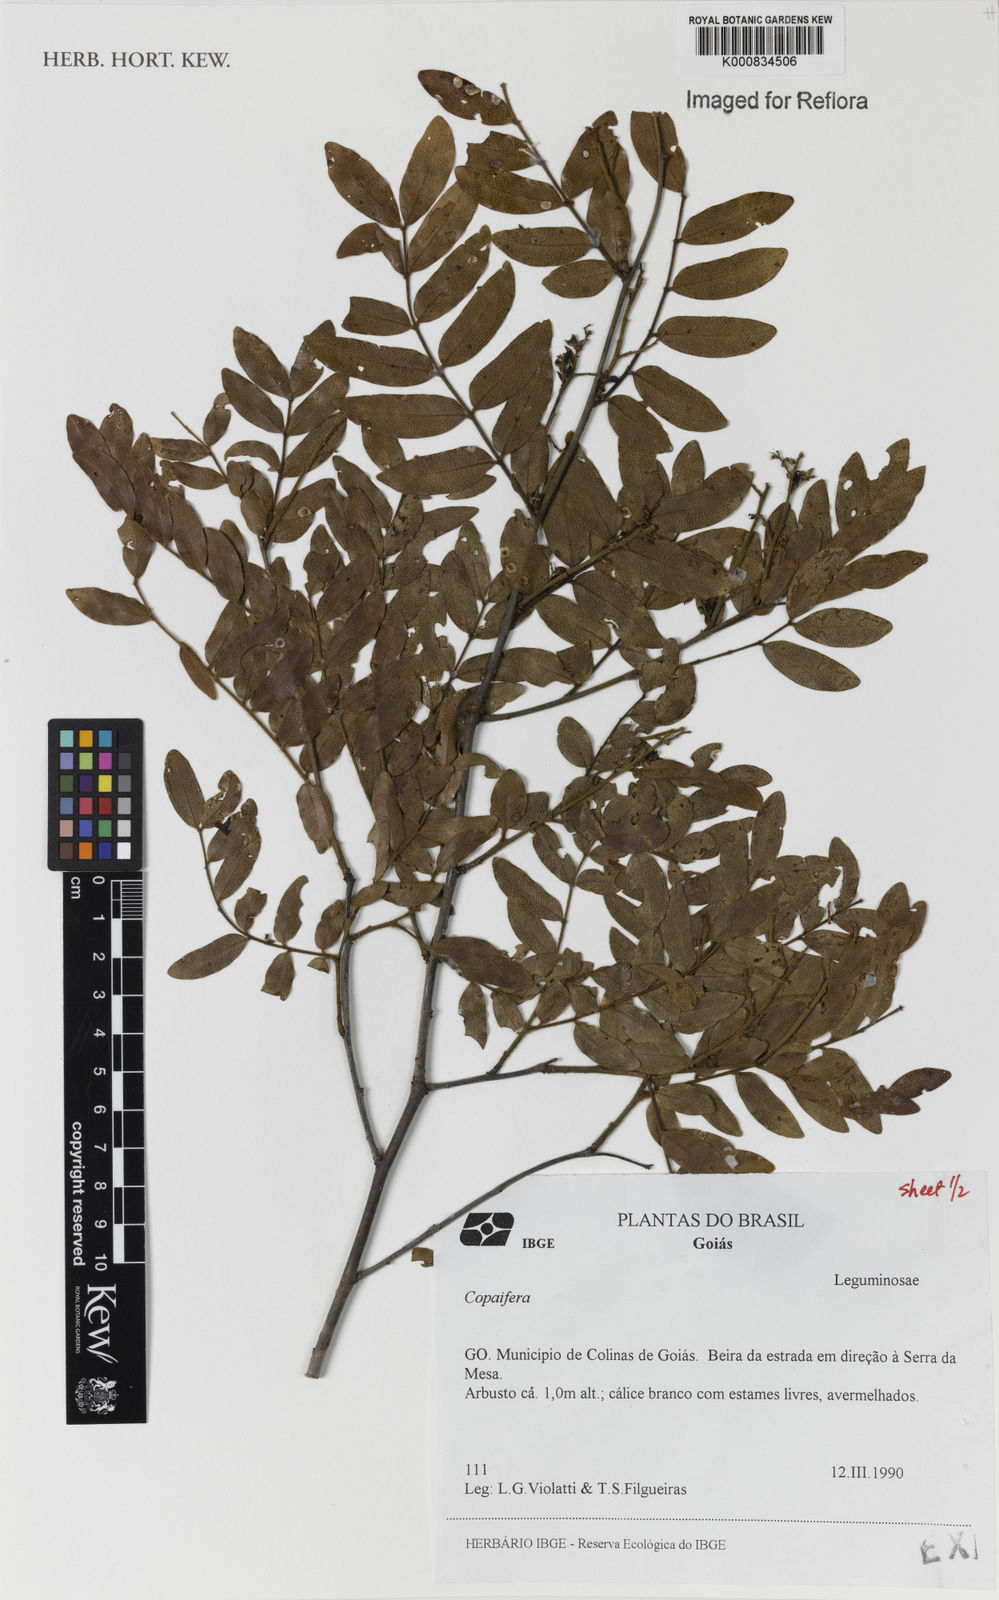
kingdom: Plantae
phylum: Tracheophyta
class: Magnoliopsida
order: Fabales
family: Fabaceae
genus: Copaifera
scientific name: Copaifera
